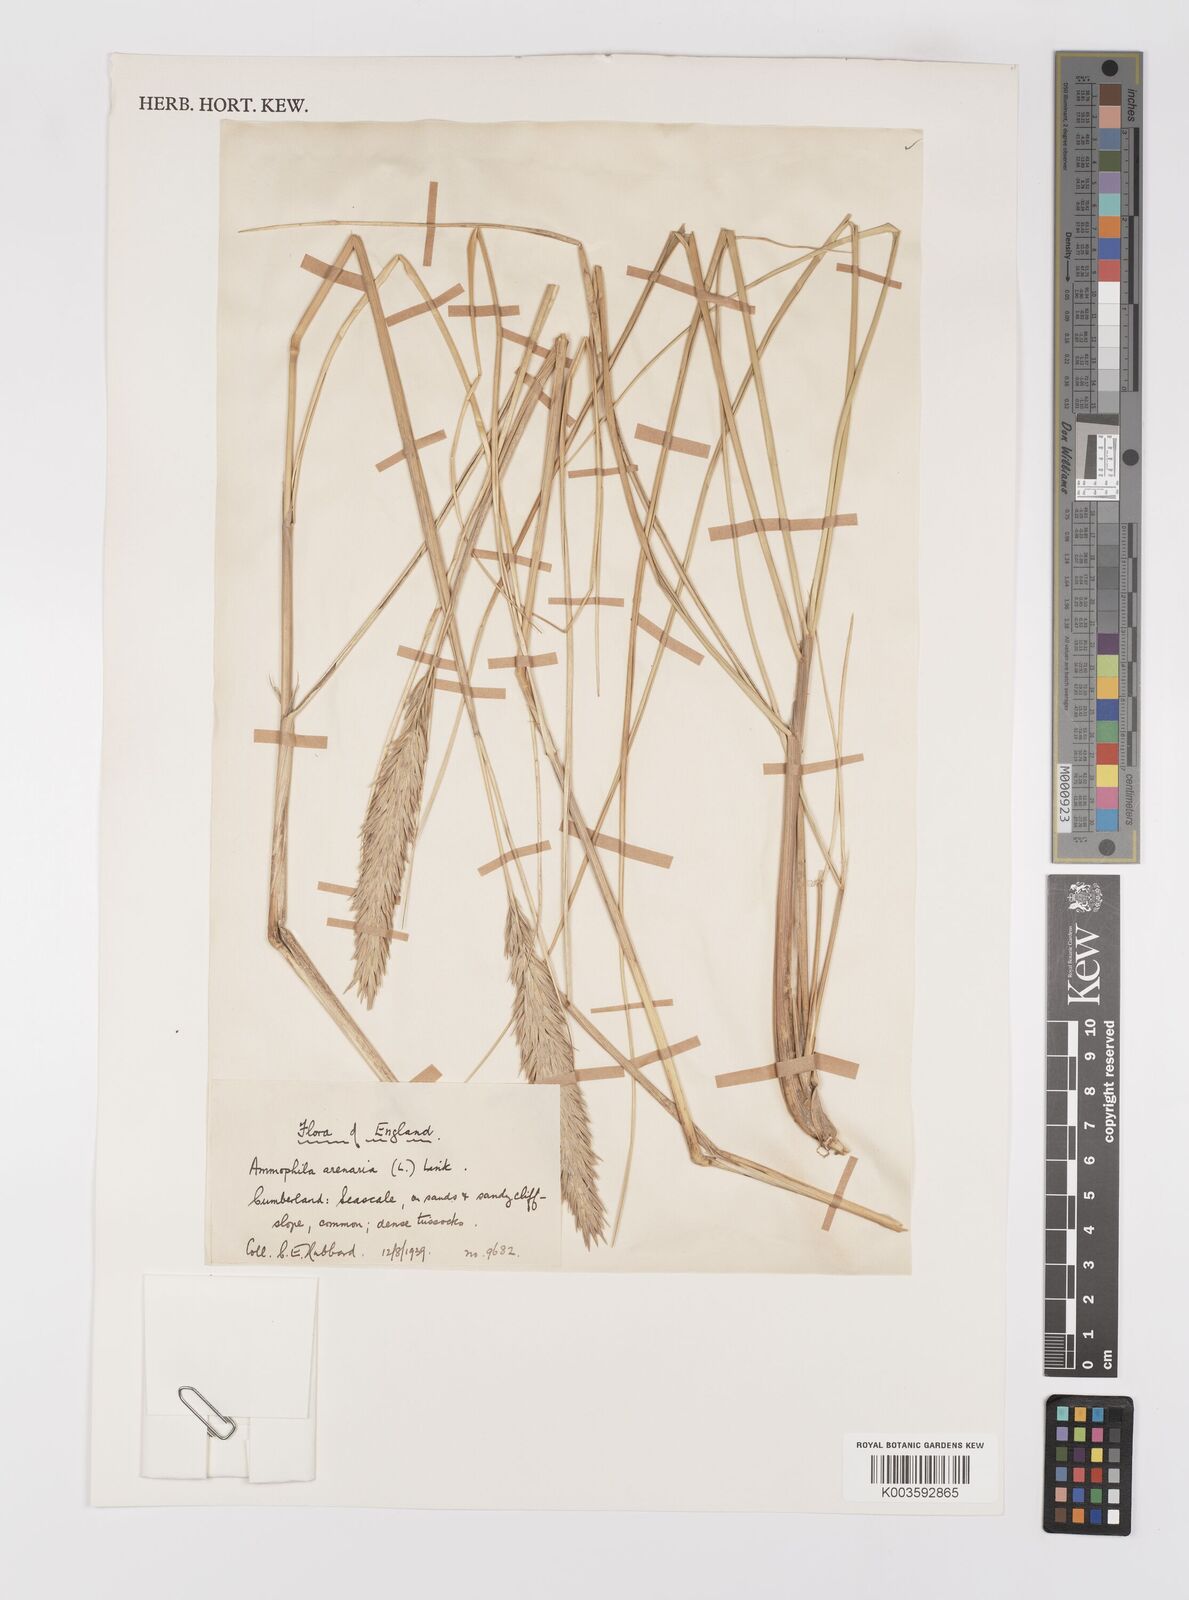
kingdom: Plantae
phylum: Tracheophyta
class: Liliopsida
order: Poales
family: Poaceae
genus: Calamagrostis
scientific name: Calamagrostis arenaria
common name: European beachgrass
